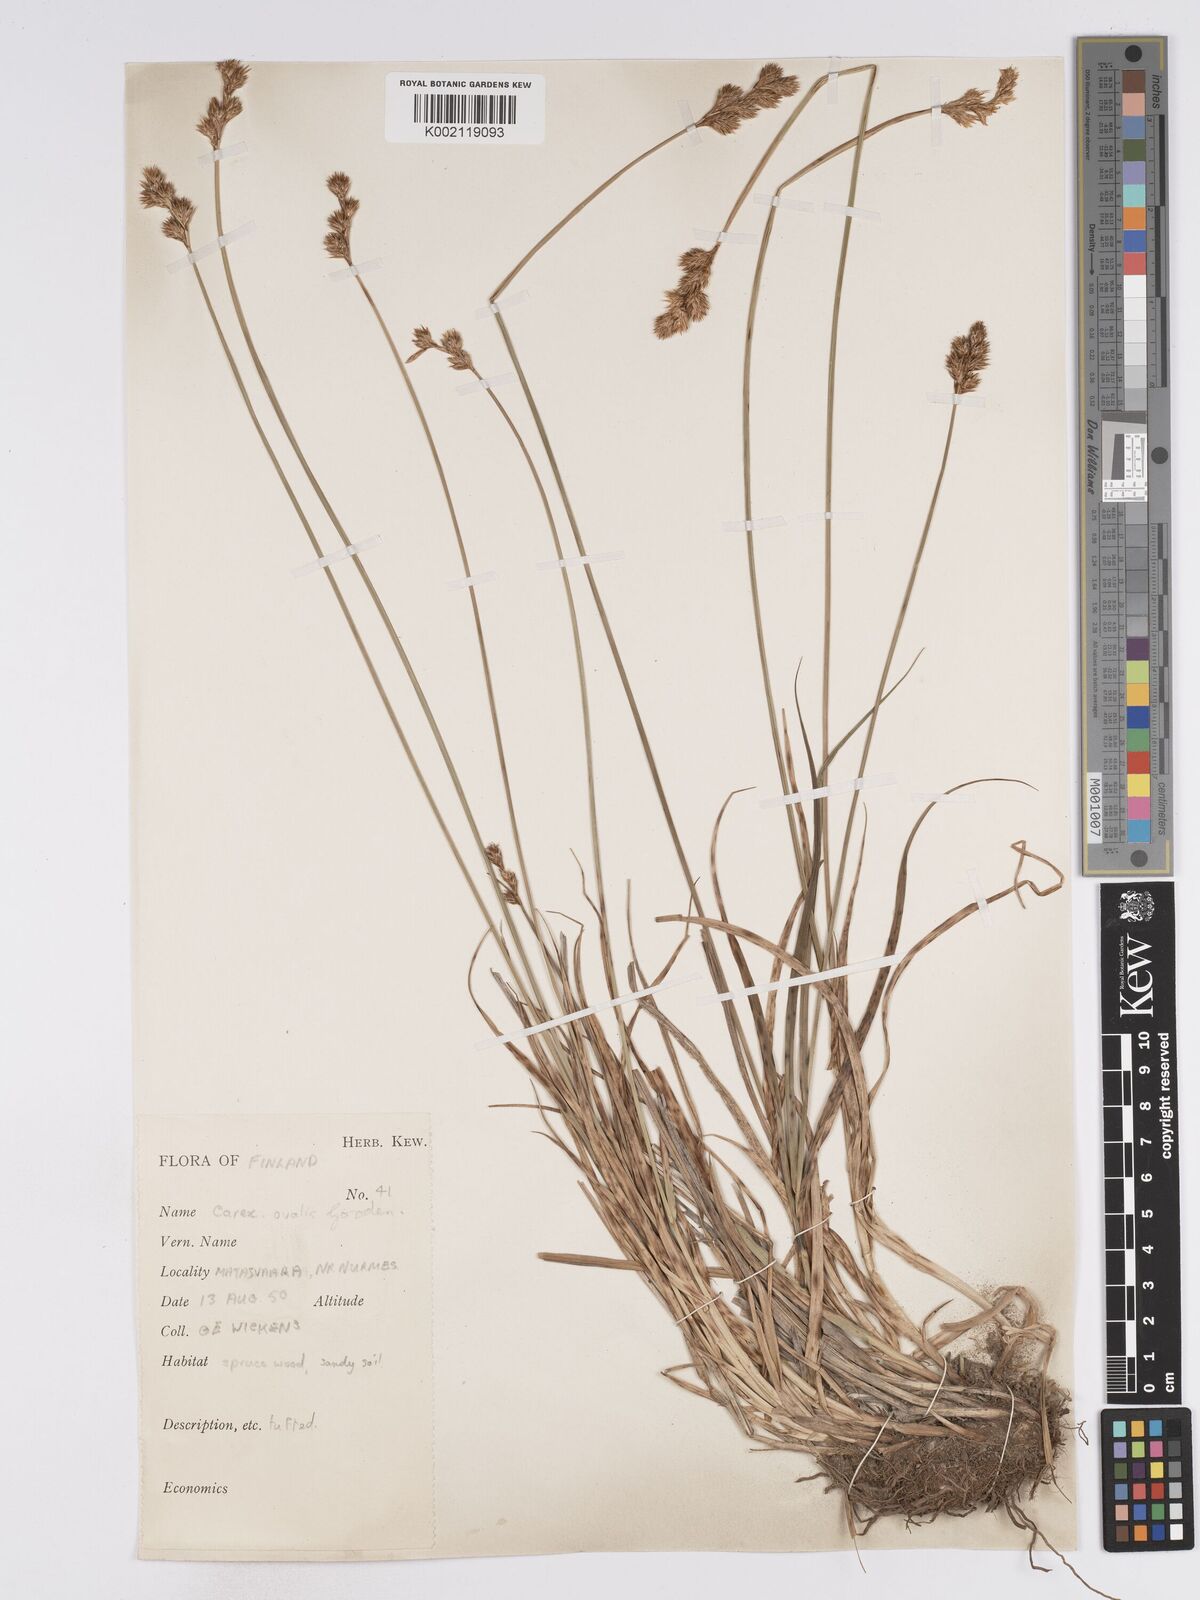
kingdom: Plantae
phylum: Tracheophyta
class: Liliopsida
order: Poales
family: Cyperaceae
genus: Carex
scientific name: Carex leporina
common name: Oval sedge
